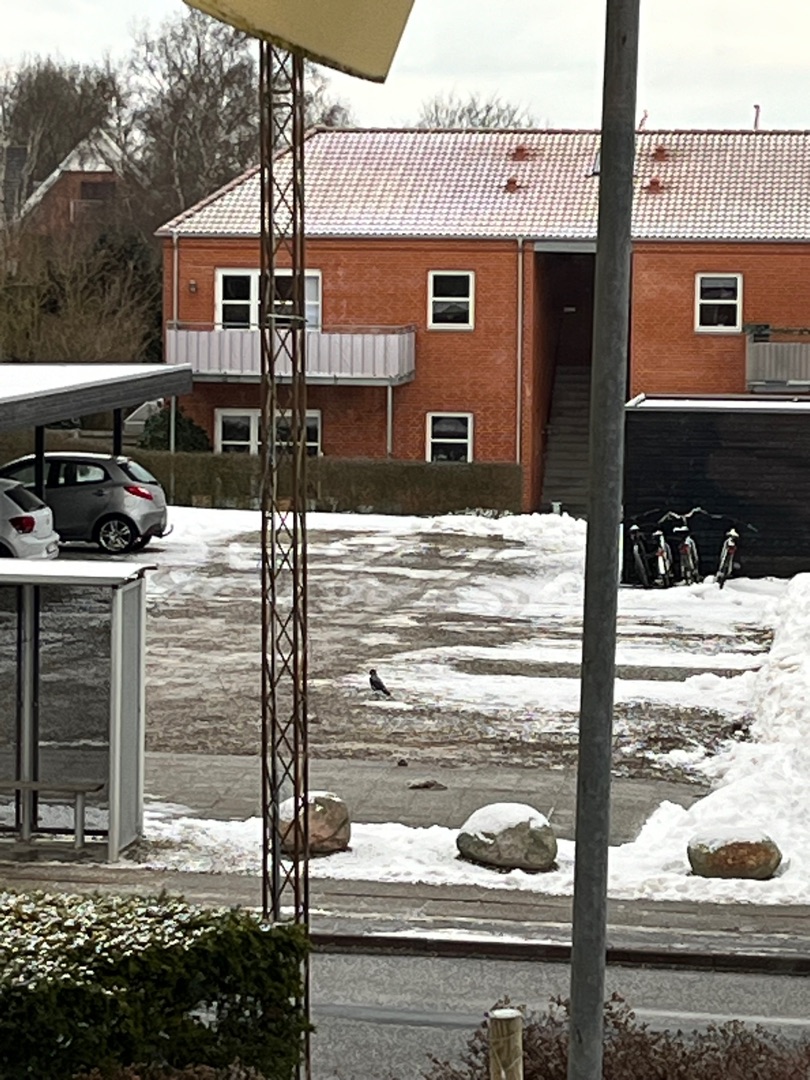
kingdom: Animalia
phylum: Chordata
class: Aves
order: Passeriformes
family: Corvidae
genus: Corvus
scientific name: Corvus cornix
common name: Gråkrage
